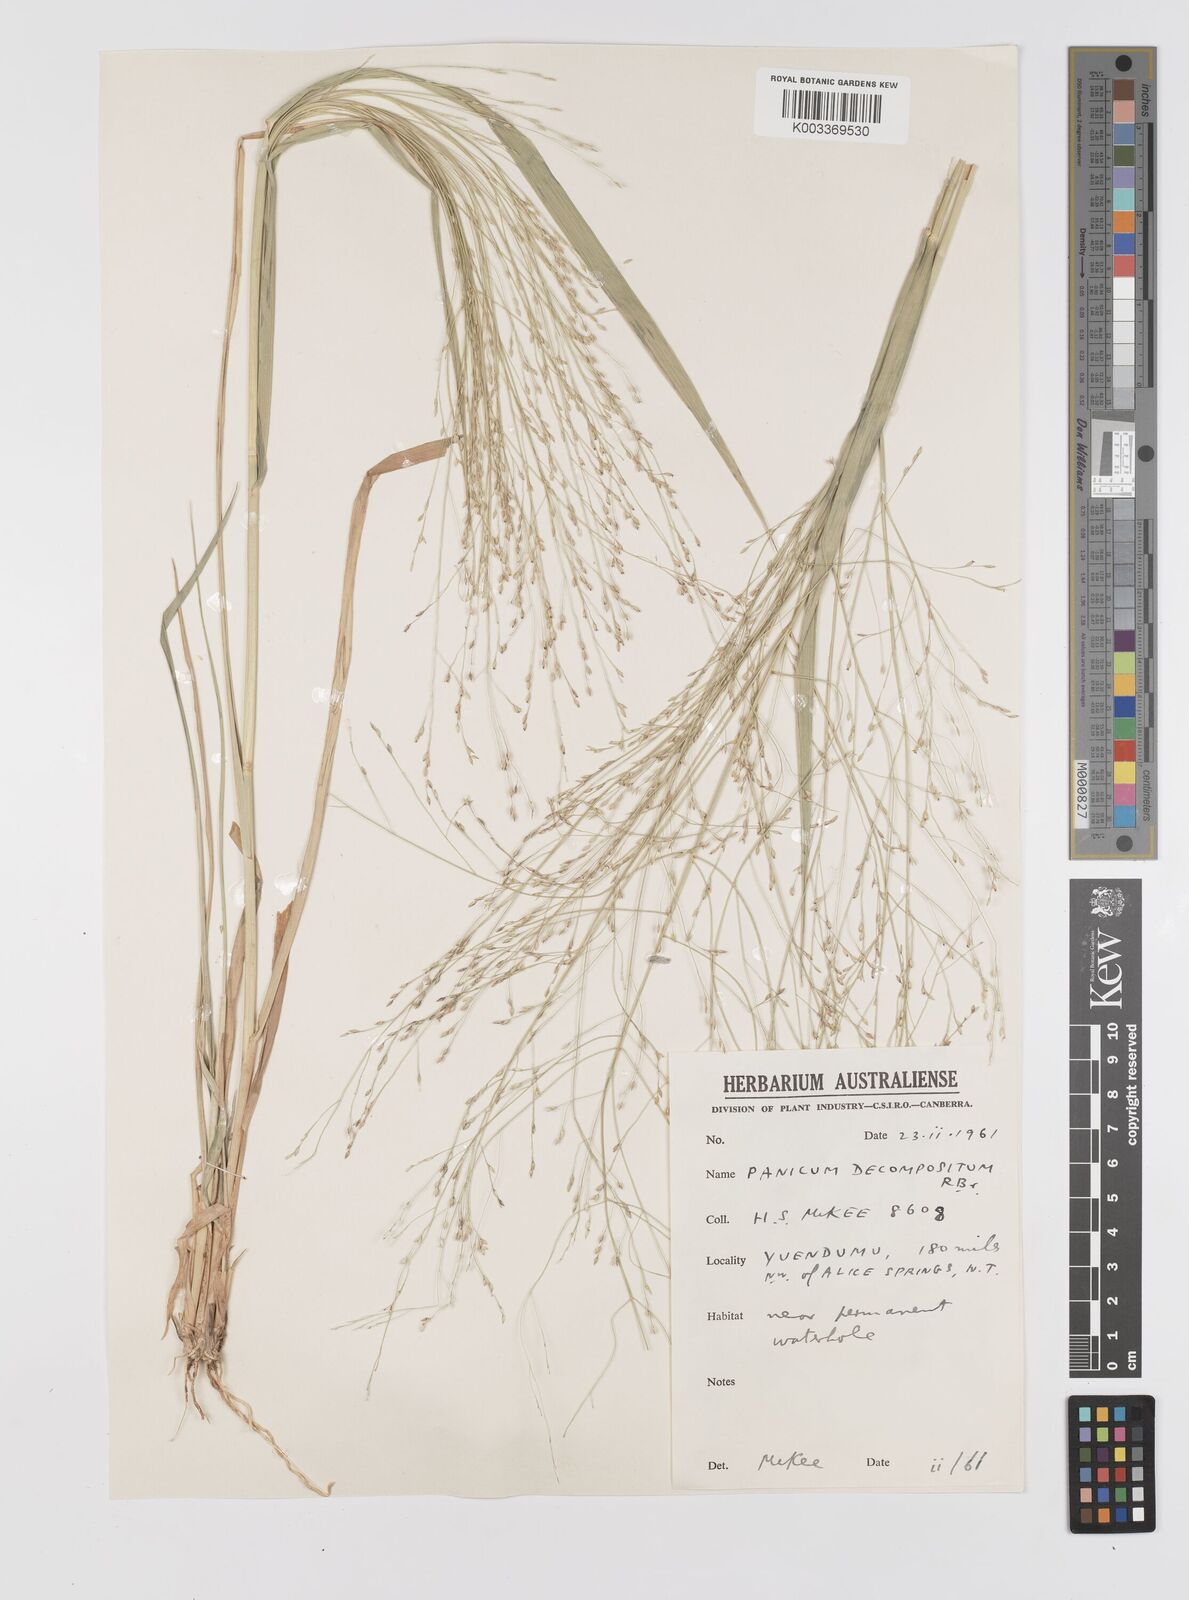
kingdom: Plantae
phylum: Tracheophyta
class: Liliopsida
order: Poales
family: Poaceae
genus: Panicum
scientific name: Panicum decompositum
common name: Australian millet
